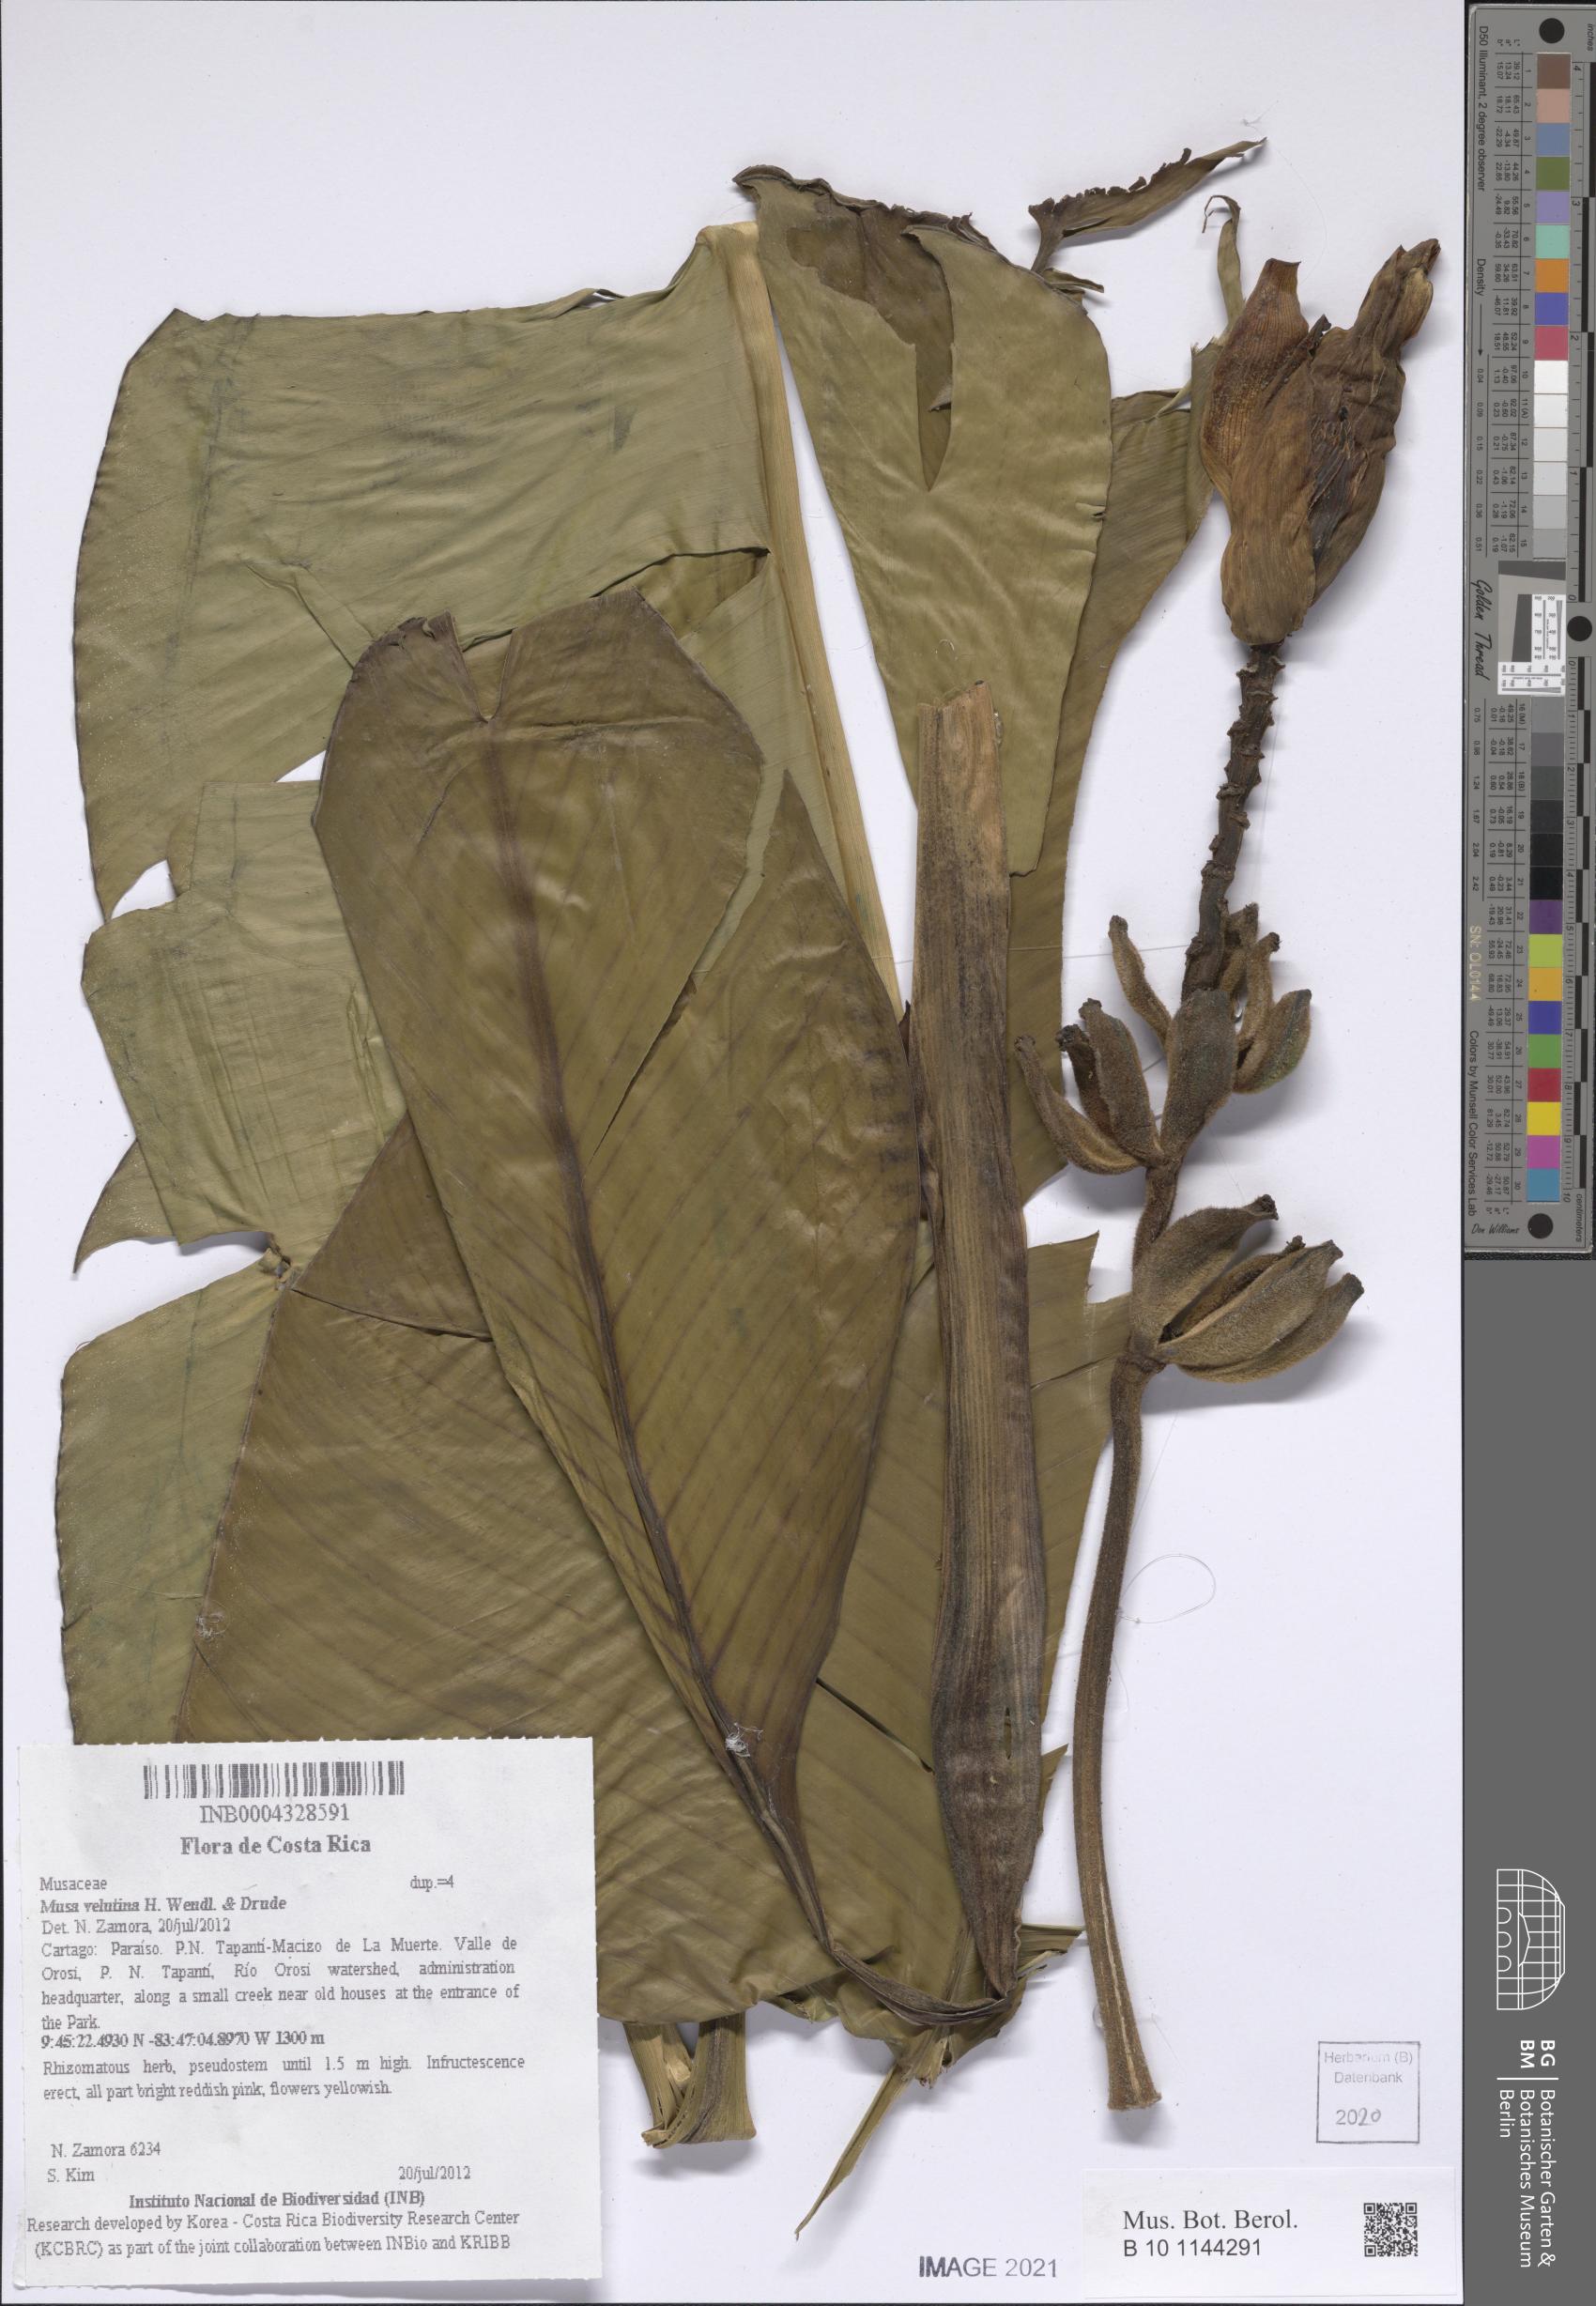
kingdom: Plantae
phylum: Tracheophyta
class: Liliopsida
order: Zingiberales
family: Musaceae
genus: Musa
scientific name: Musa velutina
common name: Pink velvet banana
